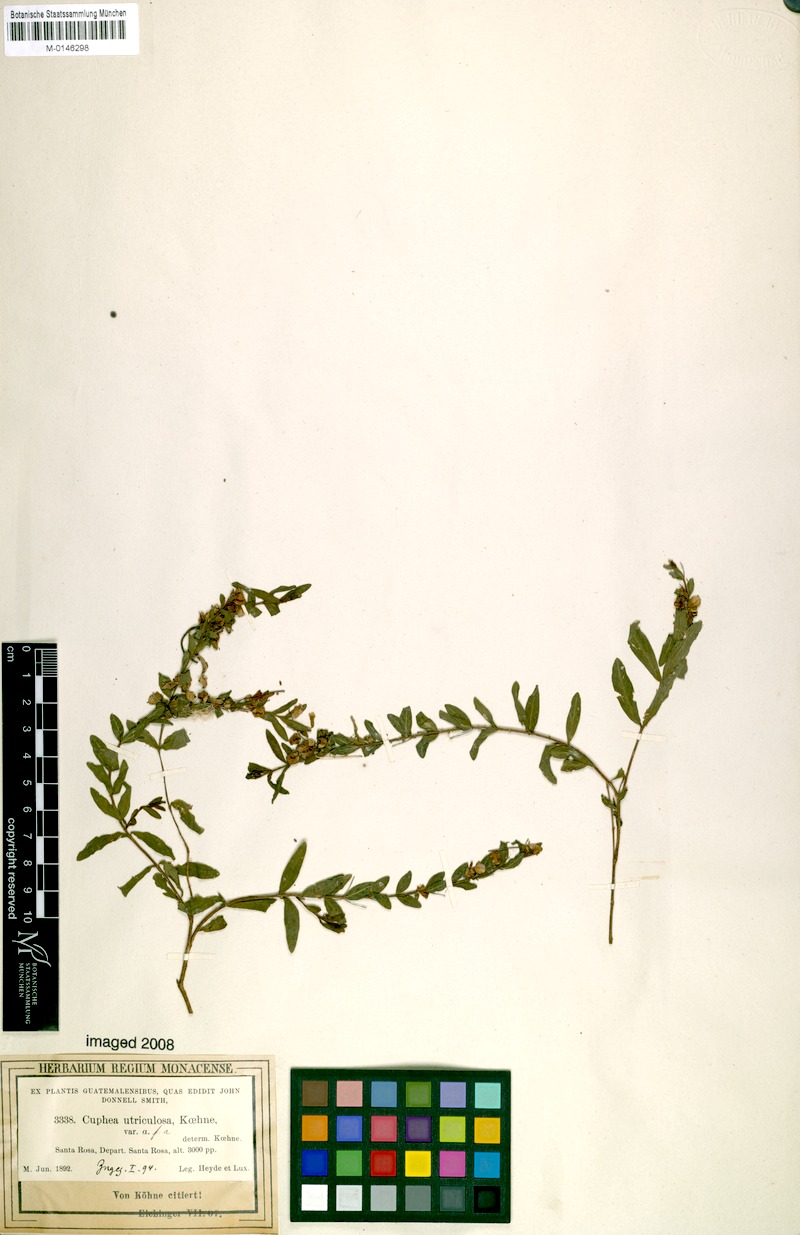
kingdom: Plantae
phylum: Tracheophyta
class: Magnoliopsida
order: Myrtales
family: Lythraceae
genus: Cuphea
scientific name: Cuphea utriculosa
